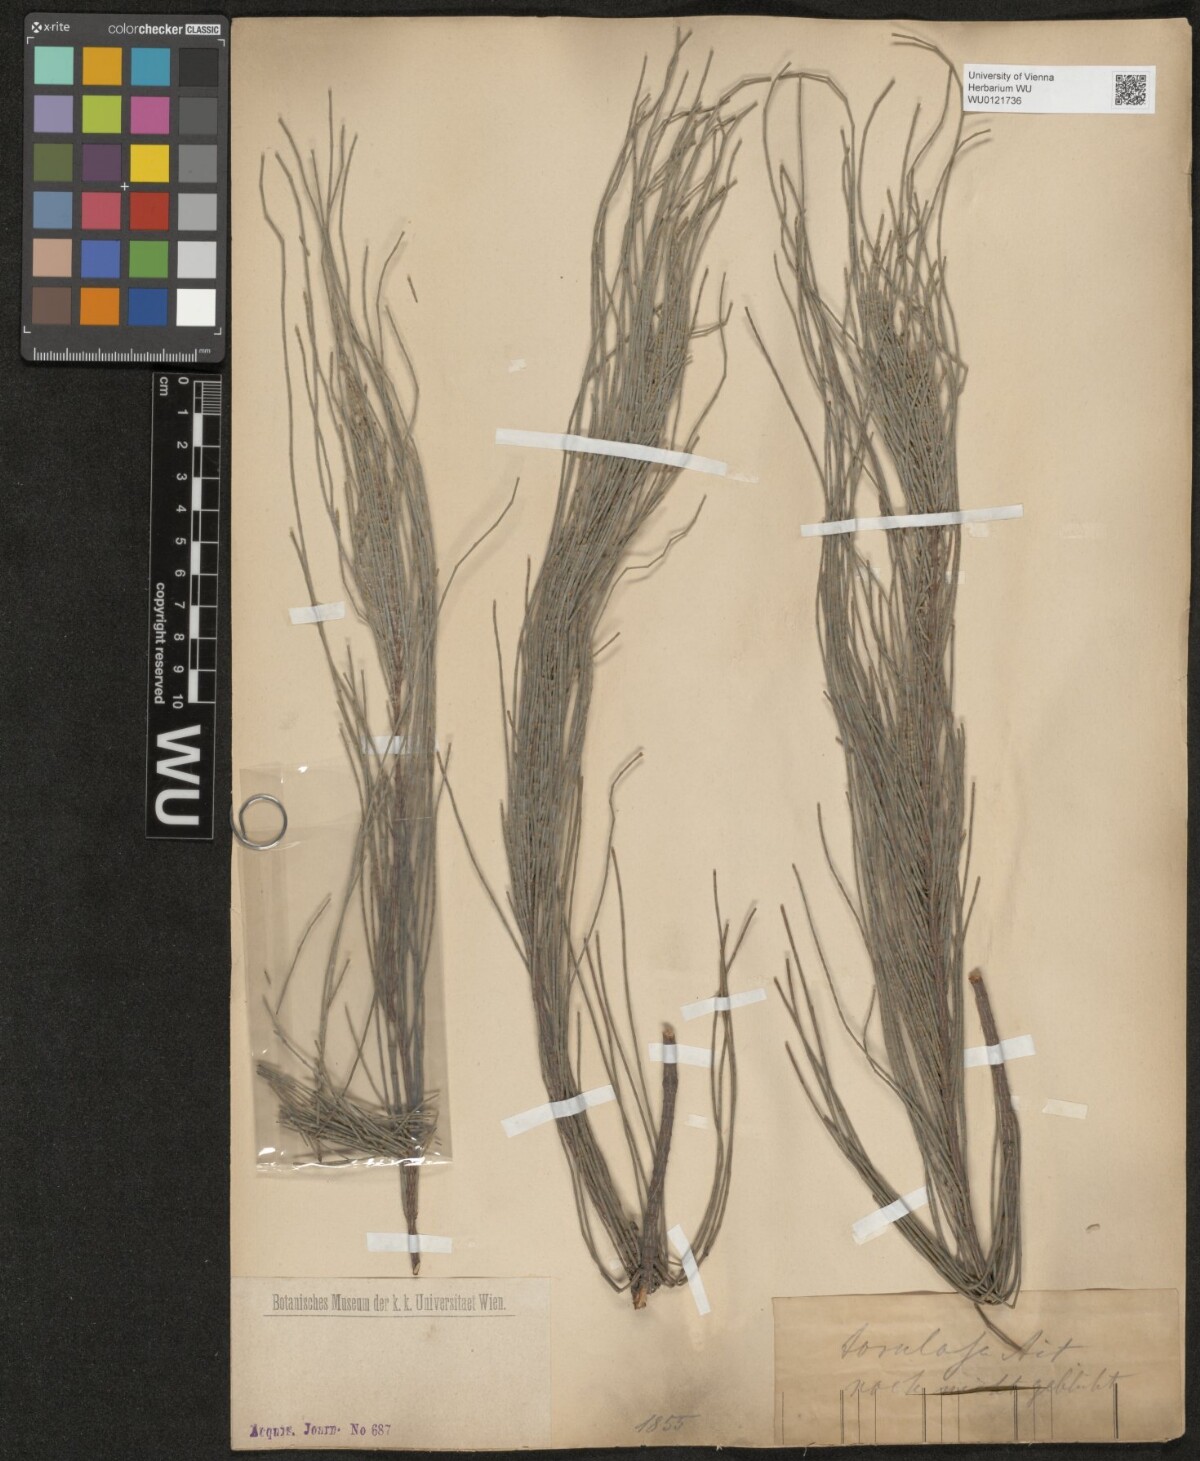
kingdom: Plantae
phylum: Tracheophyta
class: Magnoliopsida
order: Fagales
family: Casuarinaceae
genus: Allocasuarina
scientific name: Allocasuarina torulosa
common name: Forest-oak
